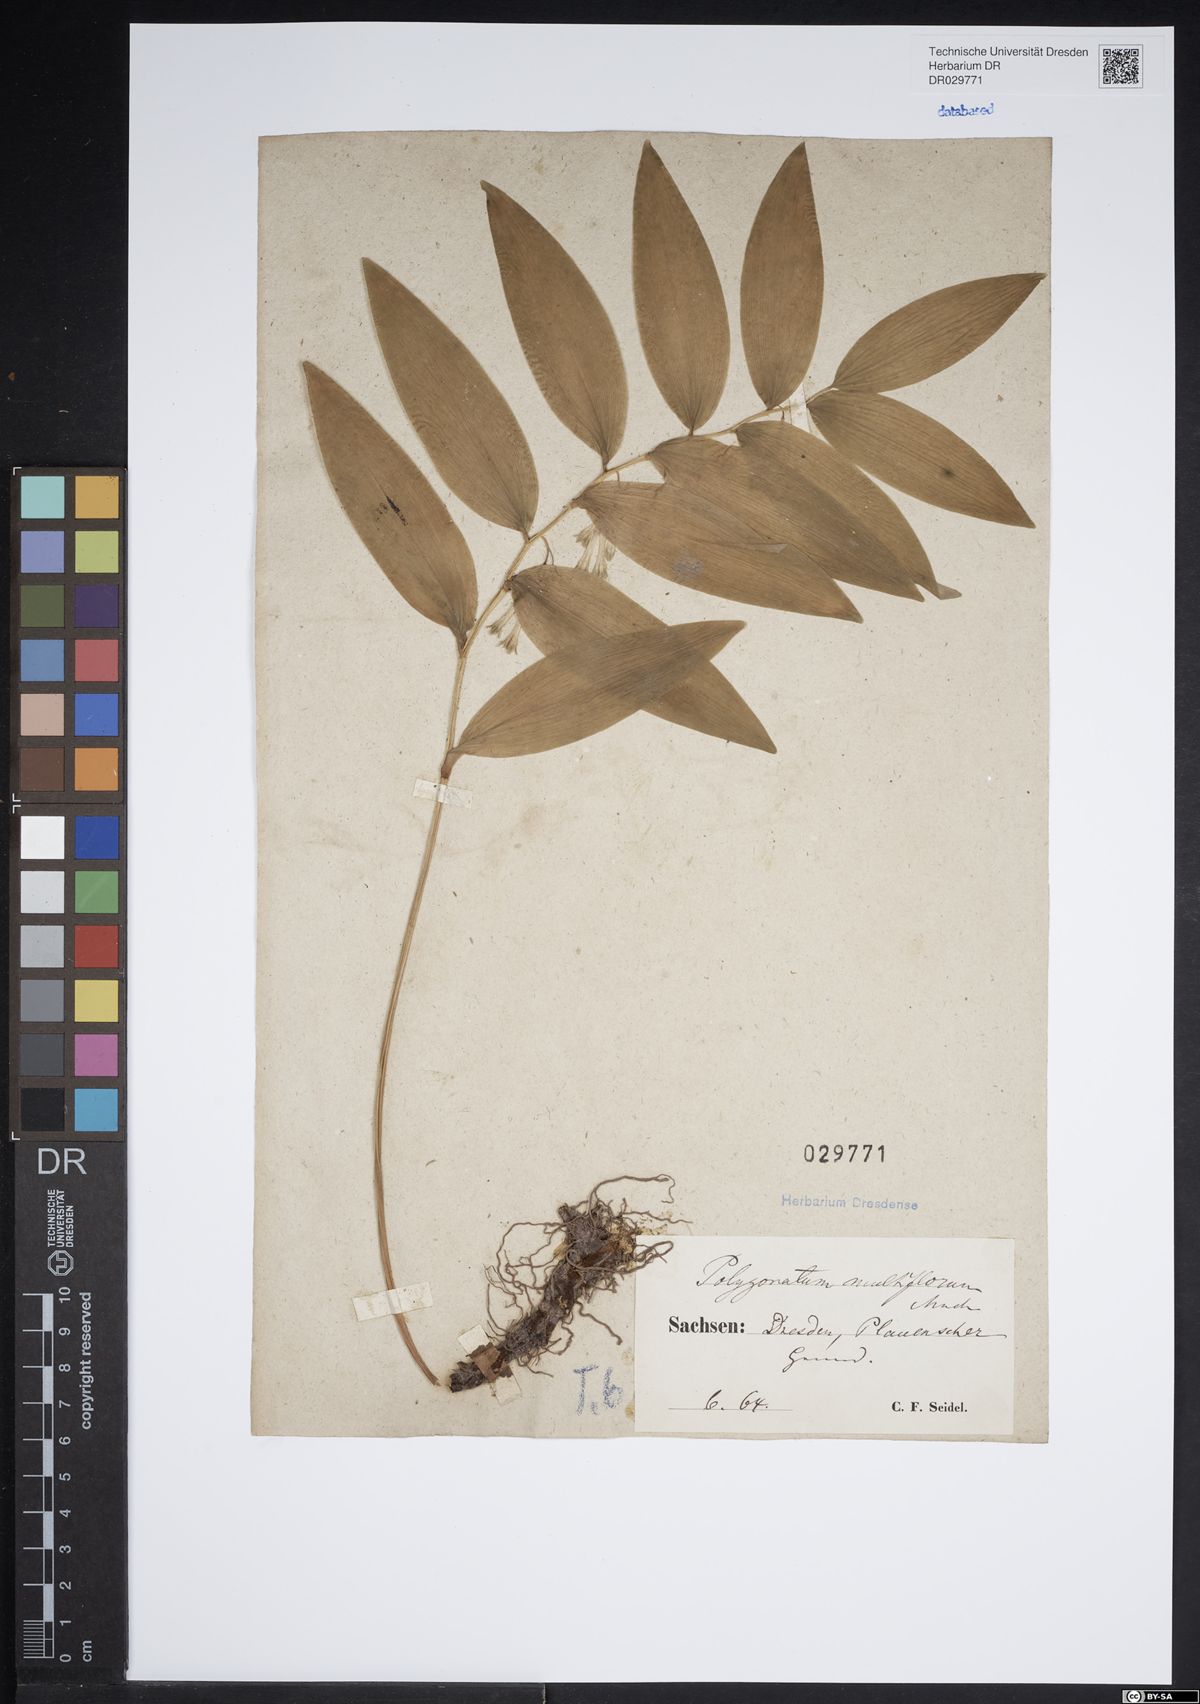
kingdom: Plantae
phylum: Tracheophyta
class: Liliopsida
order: Asparagales
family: Asparagaceae
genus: Polygonatum
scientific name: Polygonatum multiflorum
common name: Solomon's-seal
